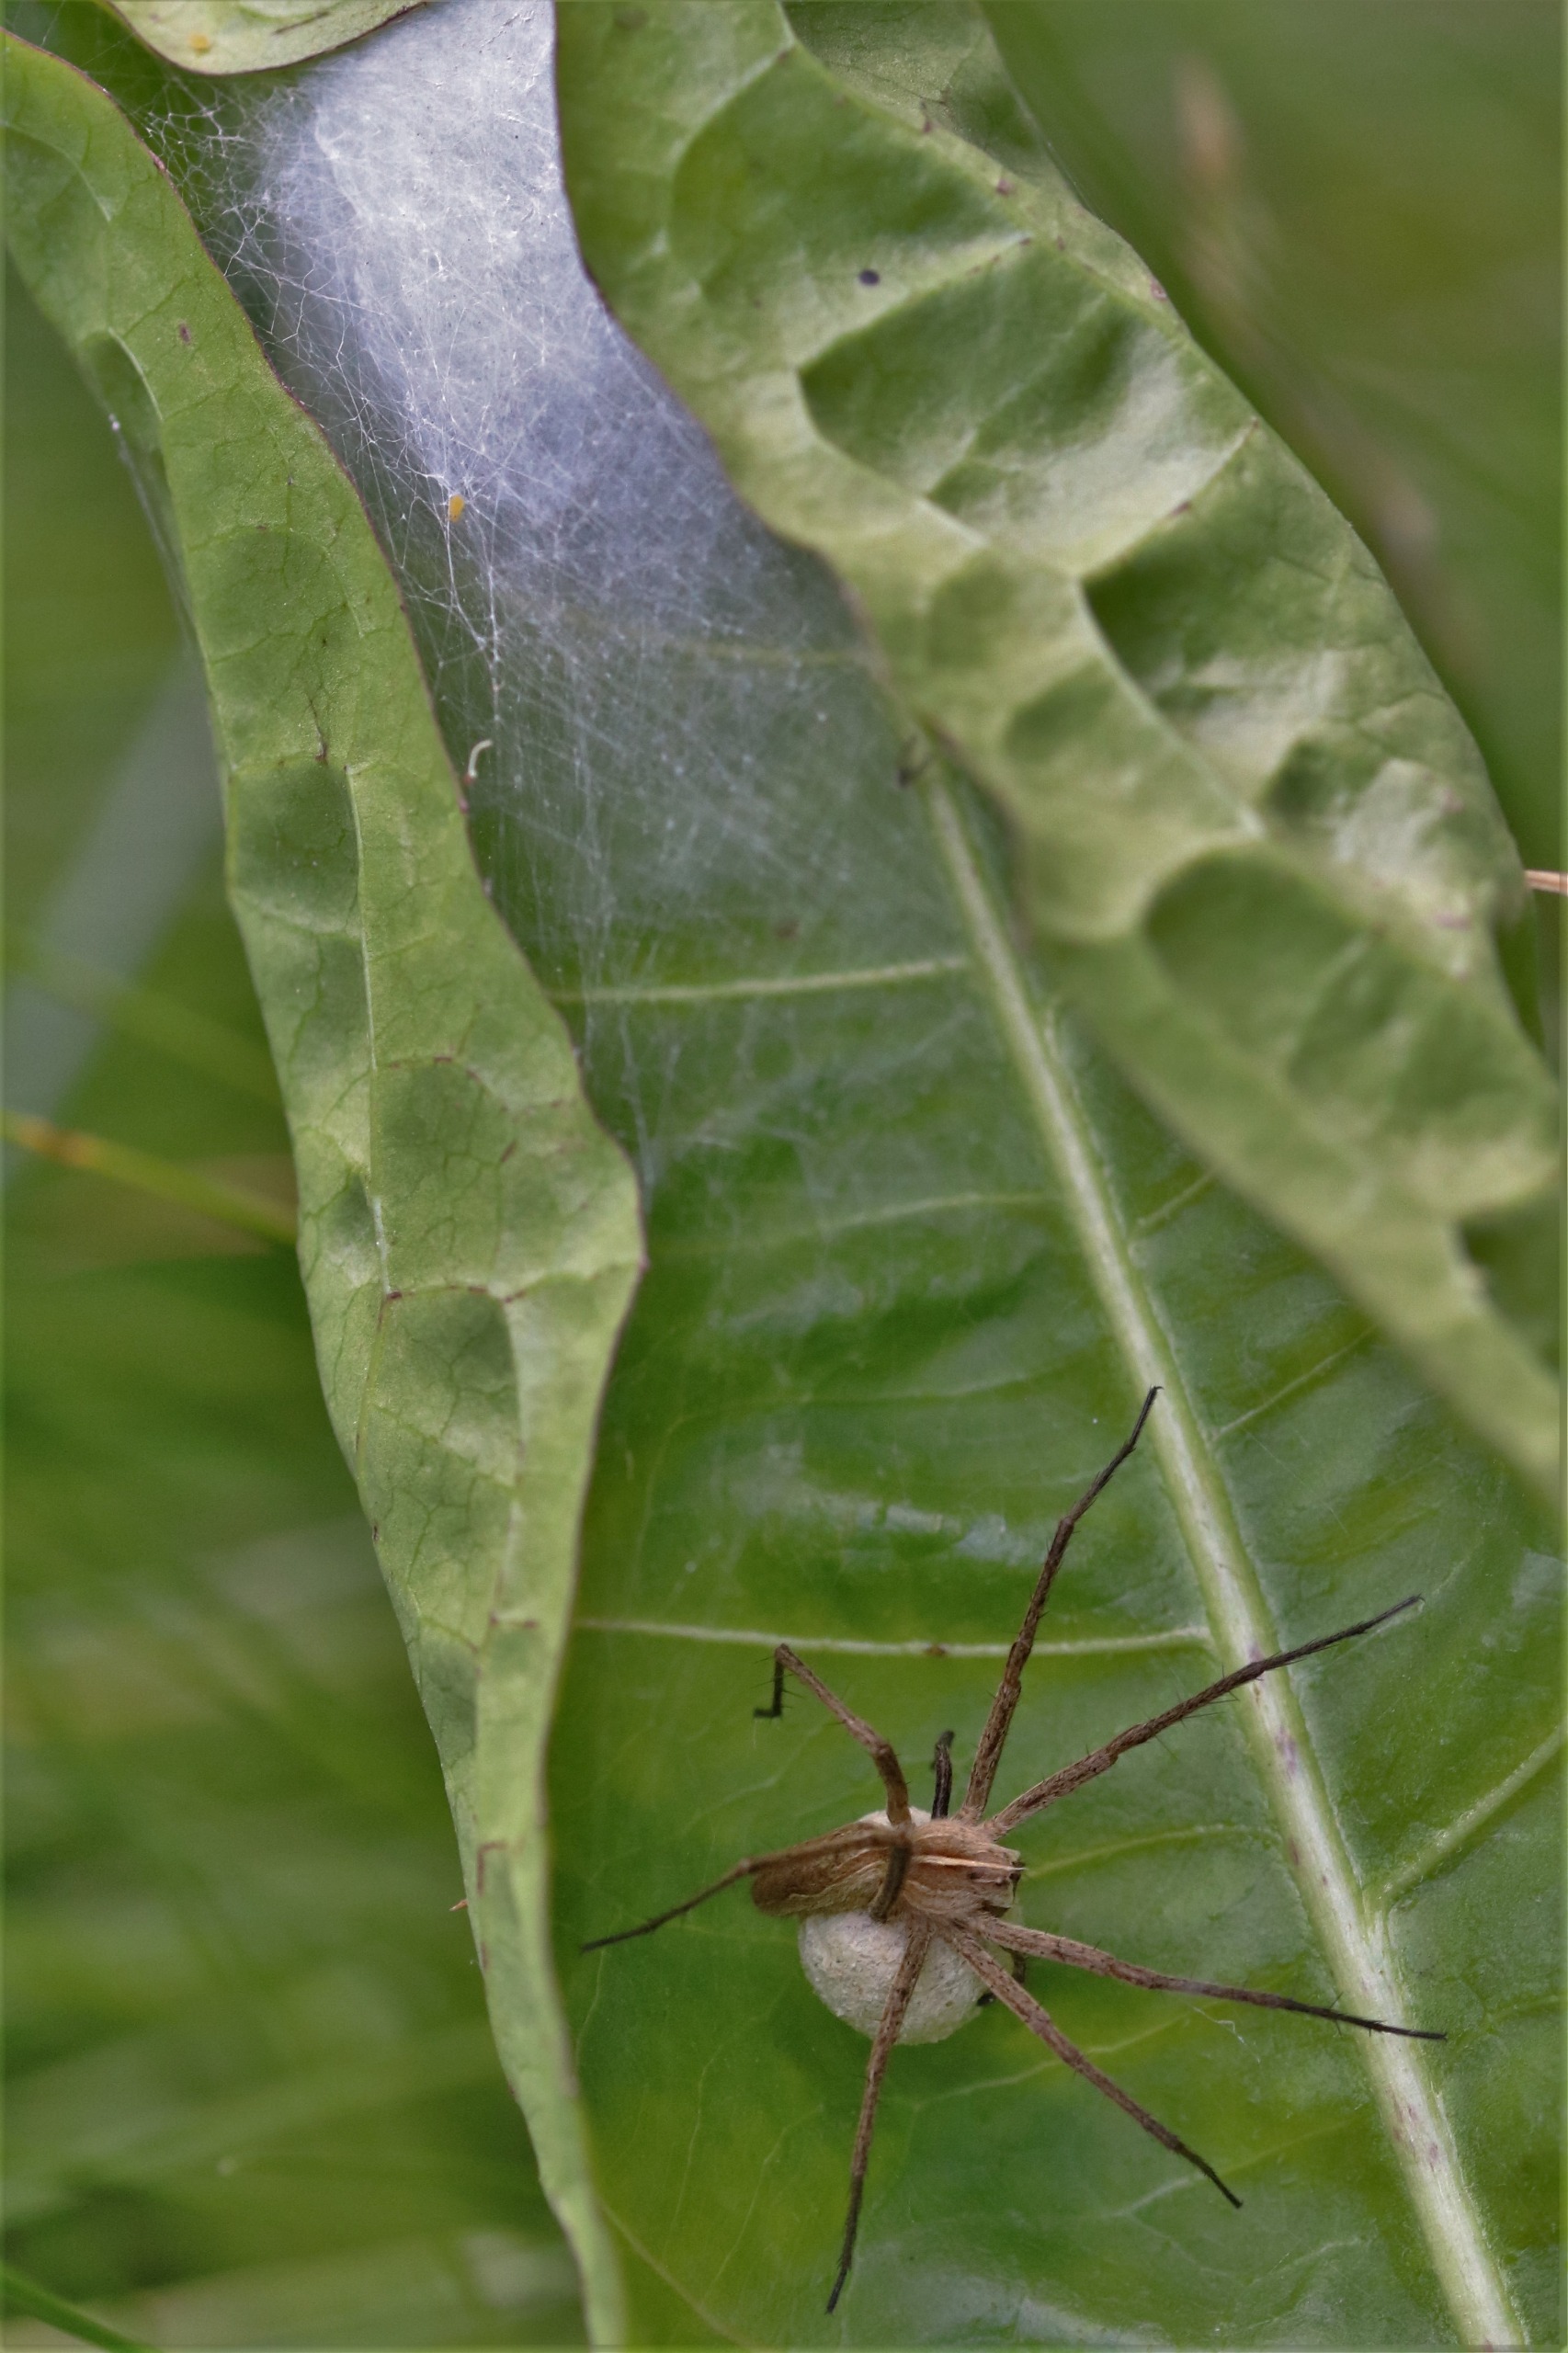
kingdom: Animalia
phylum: Arthropoda
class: Arachnida
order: Araneae
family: Pisauridae
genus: Pisaura
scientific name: Pisaura mirabilis
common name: Almindelig rovedderkop
